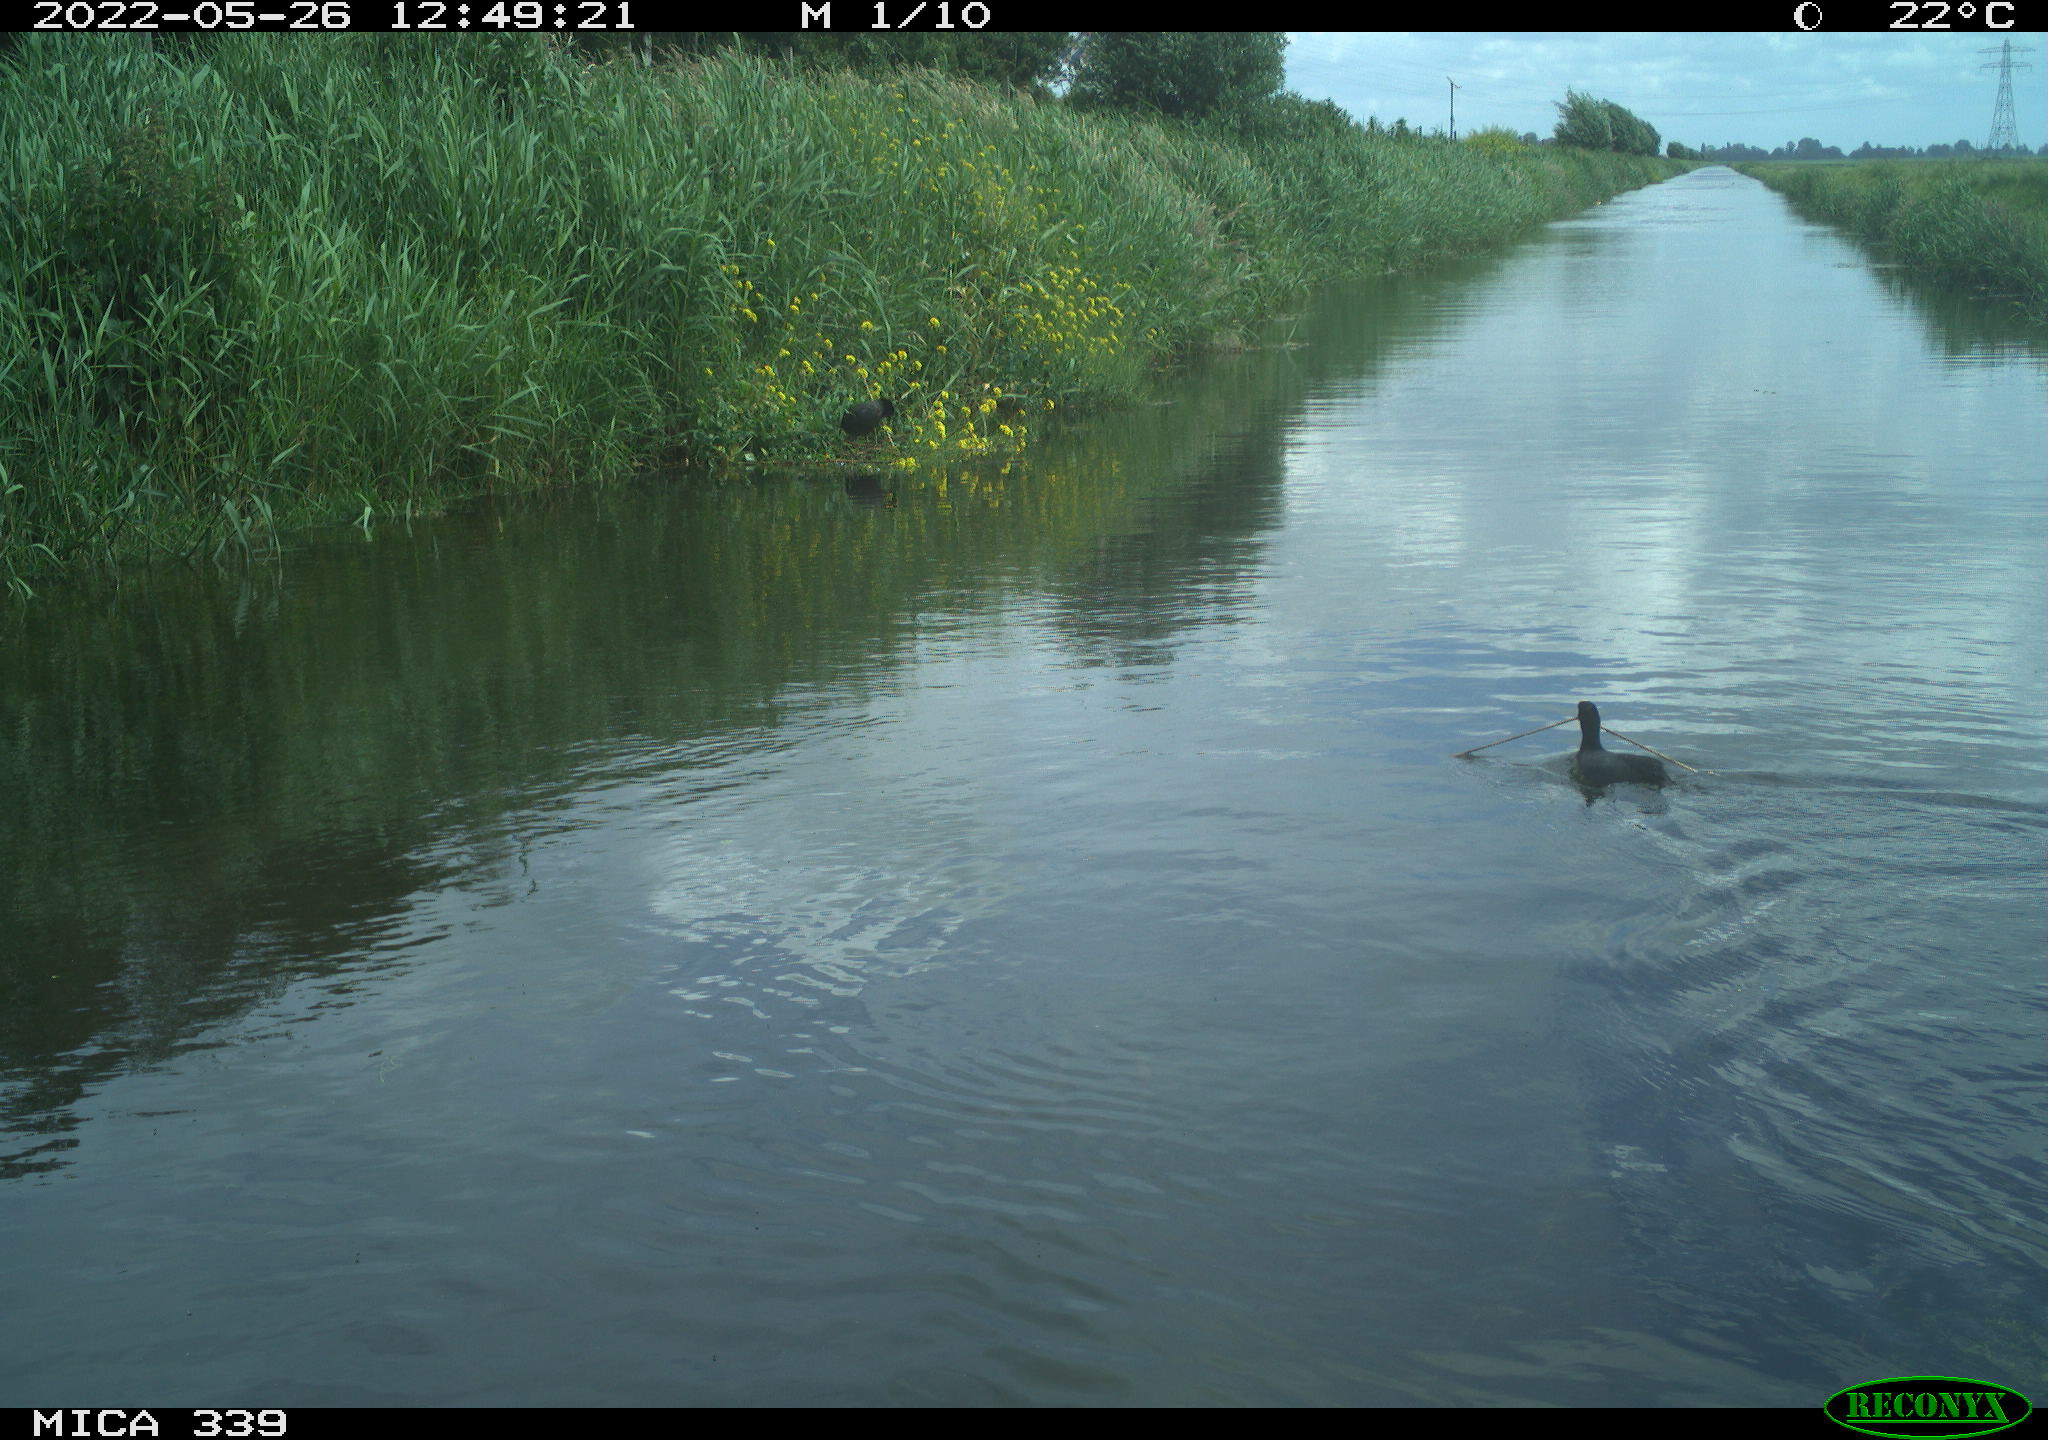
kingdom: Animalia
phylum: Chordata
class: Aves
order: Gruiformes
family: Rallidae
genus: Fulica
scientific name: Fulica atra
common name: Eurasian coot
